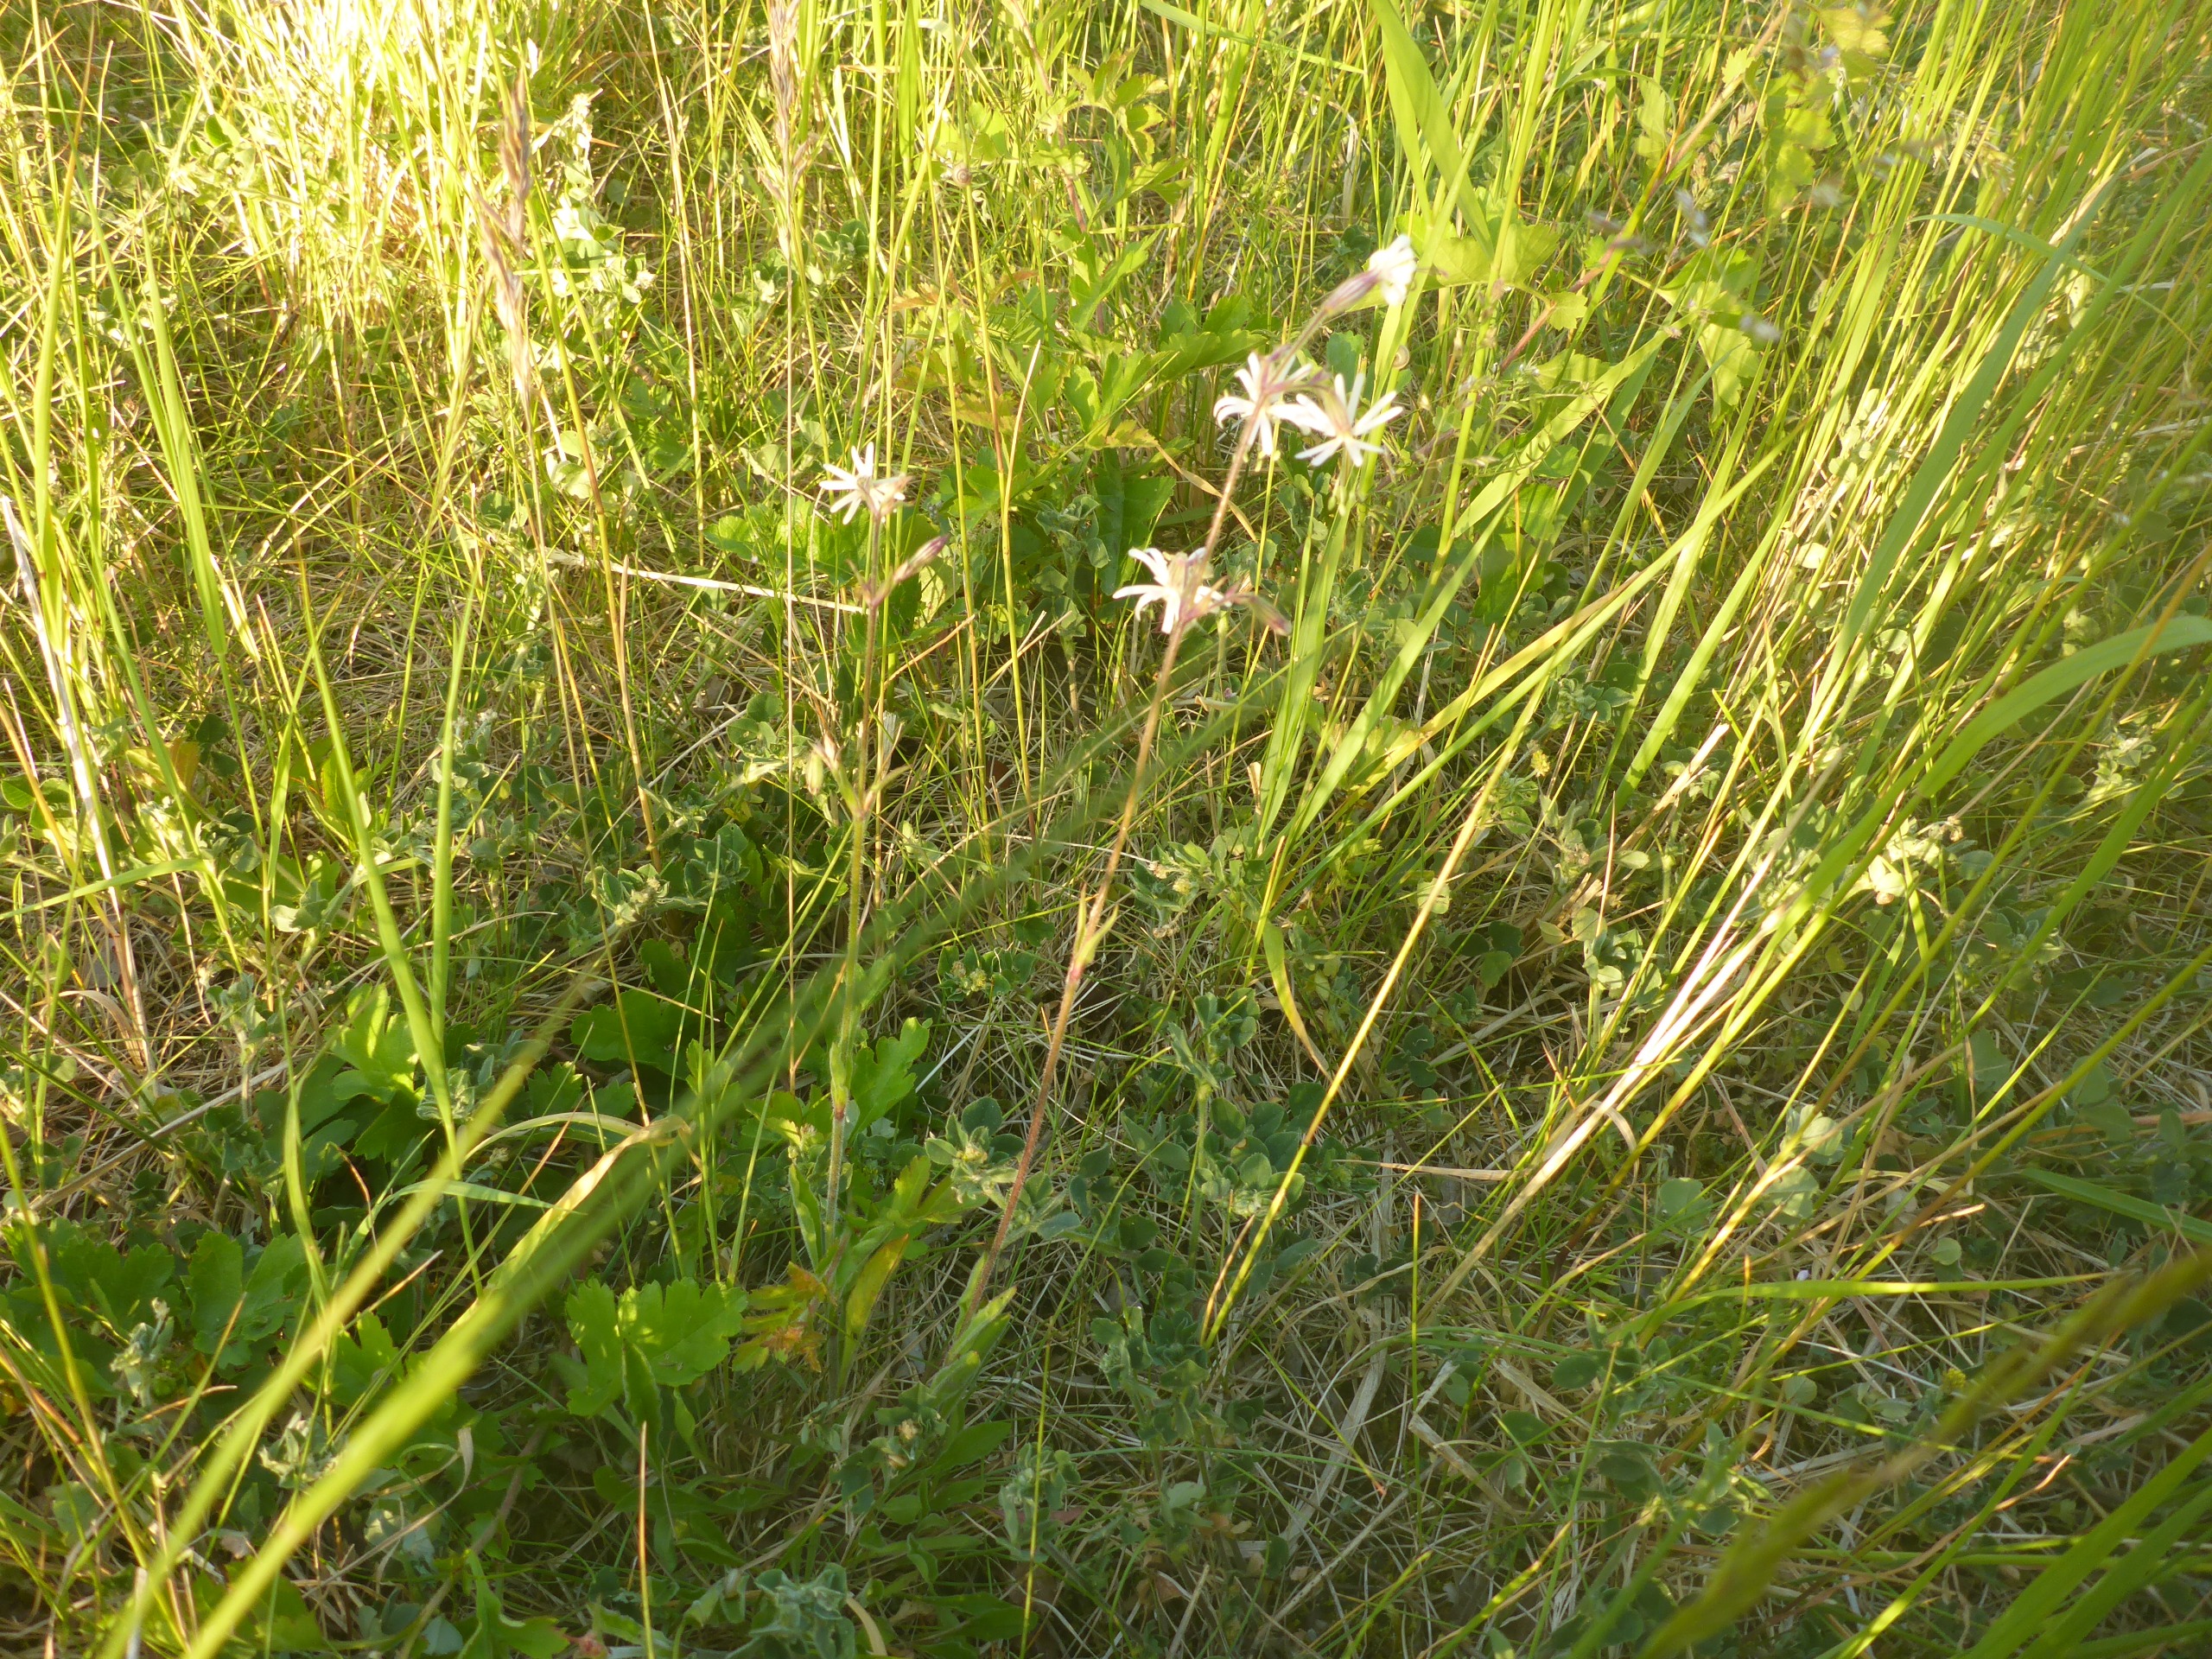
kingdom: Plantae
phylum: Tracheophyta
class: Magnoliopsida
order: Caryophyllales
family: Caryophyllaceae
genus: Silene
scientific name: Silene nutans
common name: Nikkende limurt
